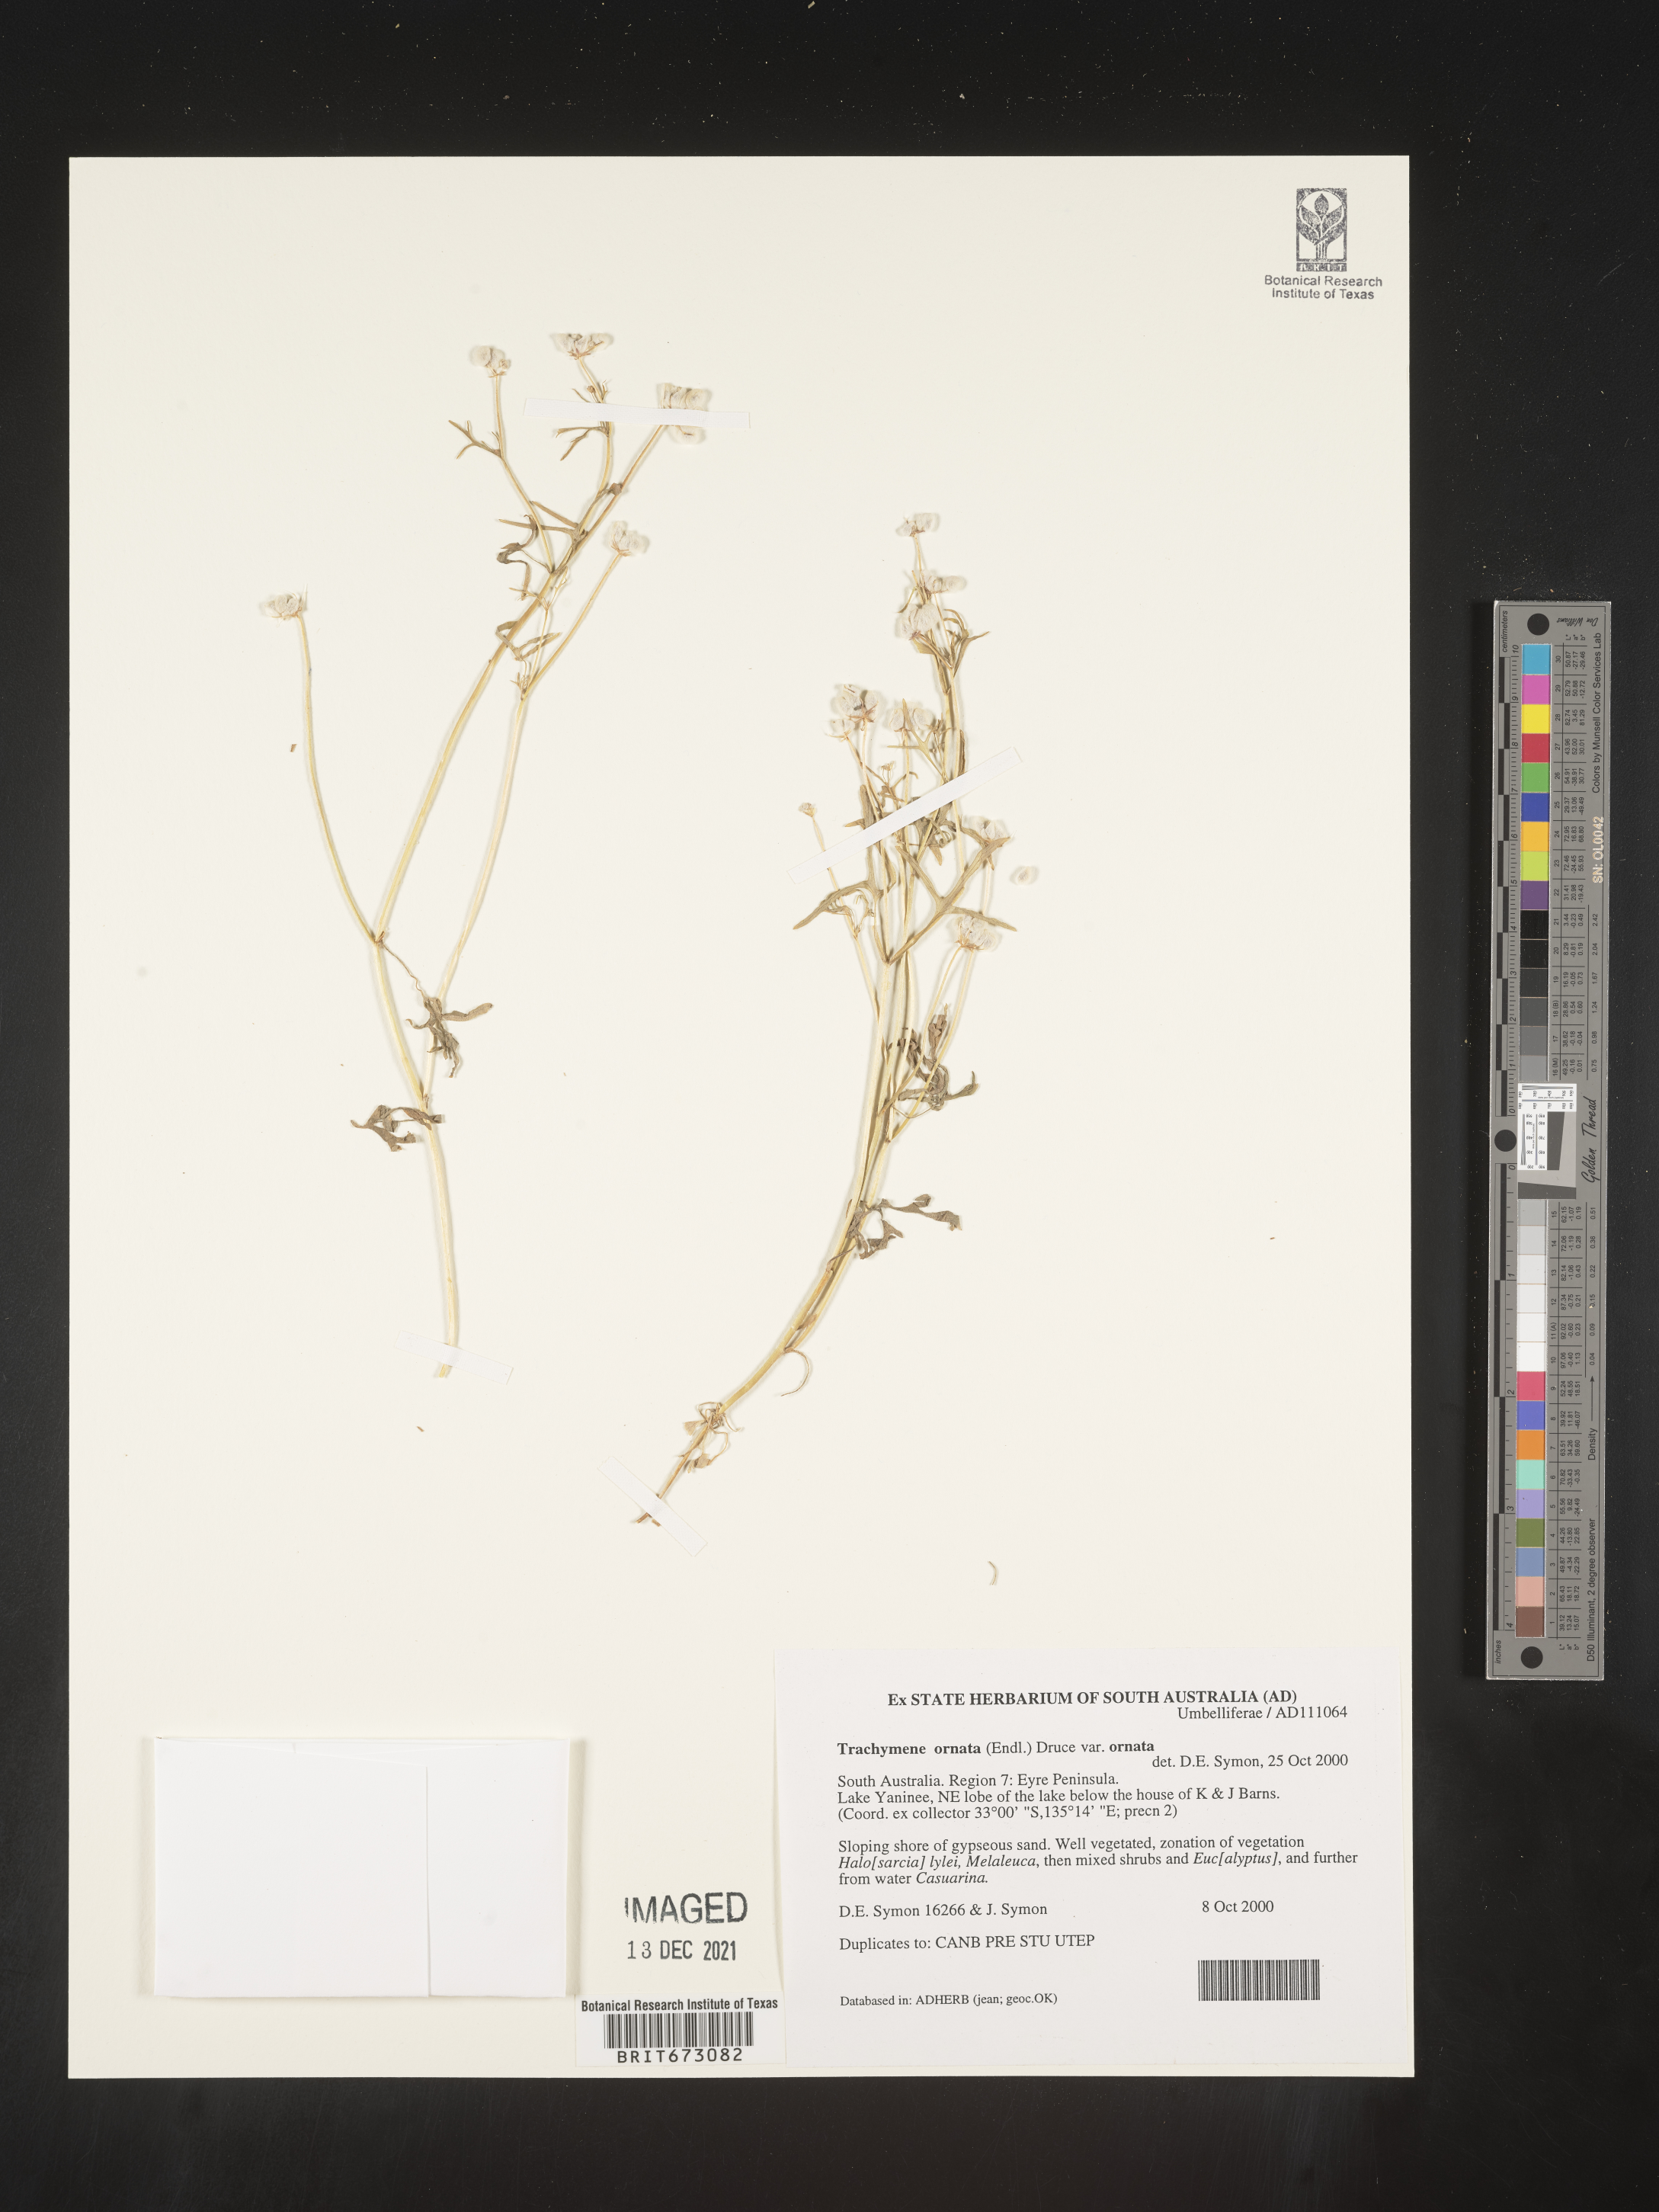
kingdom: Plantae
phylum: Tracheophyta
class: Magnoliopsida
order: Apiales
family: Araliaceae
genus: Trachymene
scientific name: Trachymene
